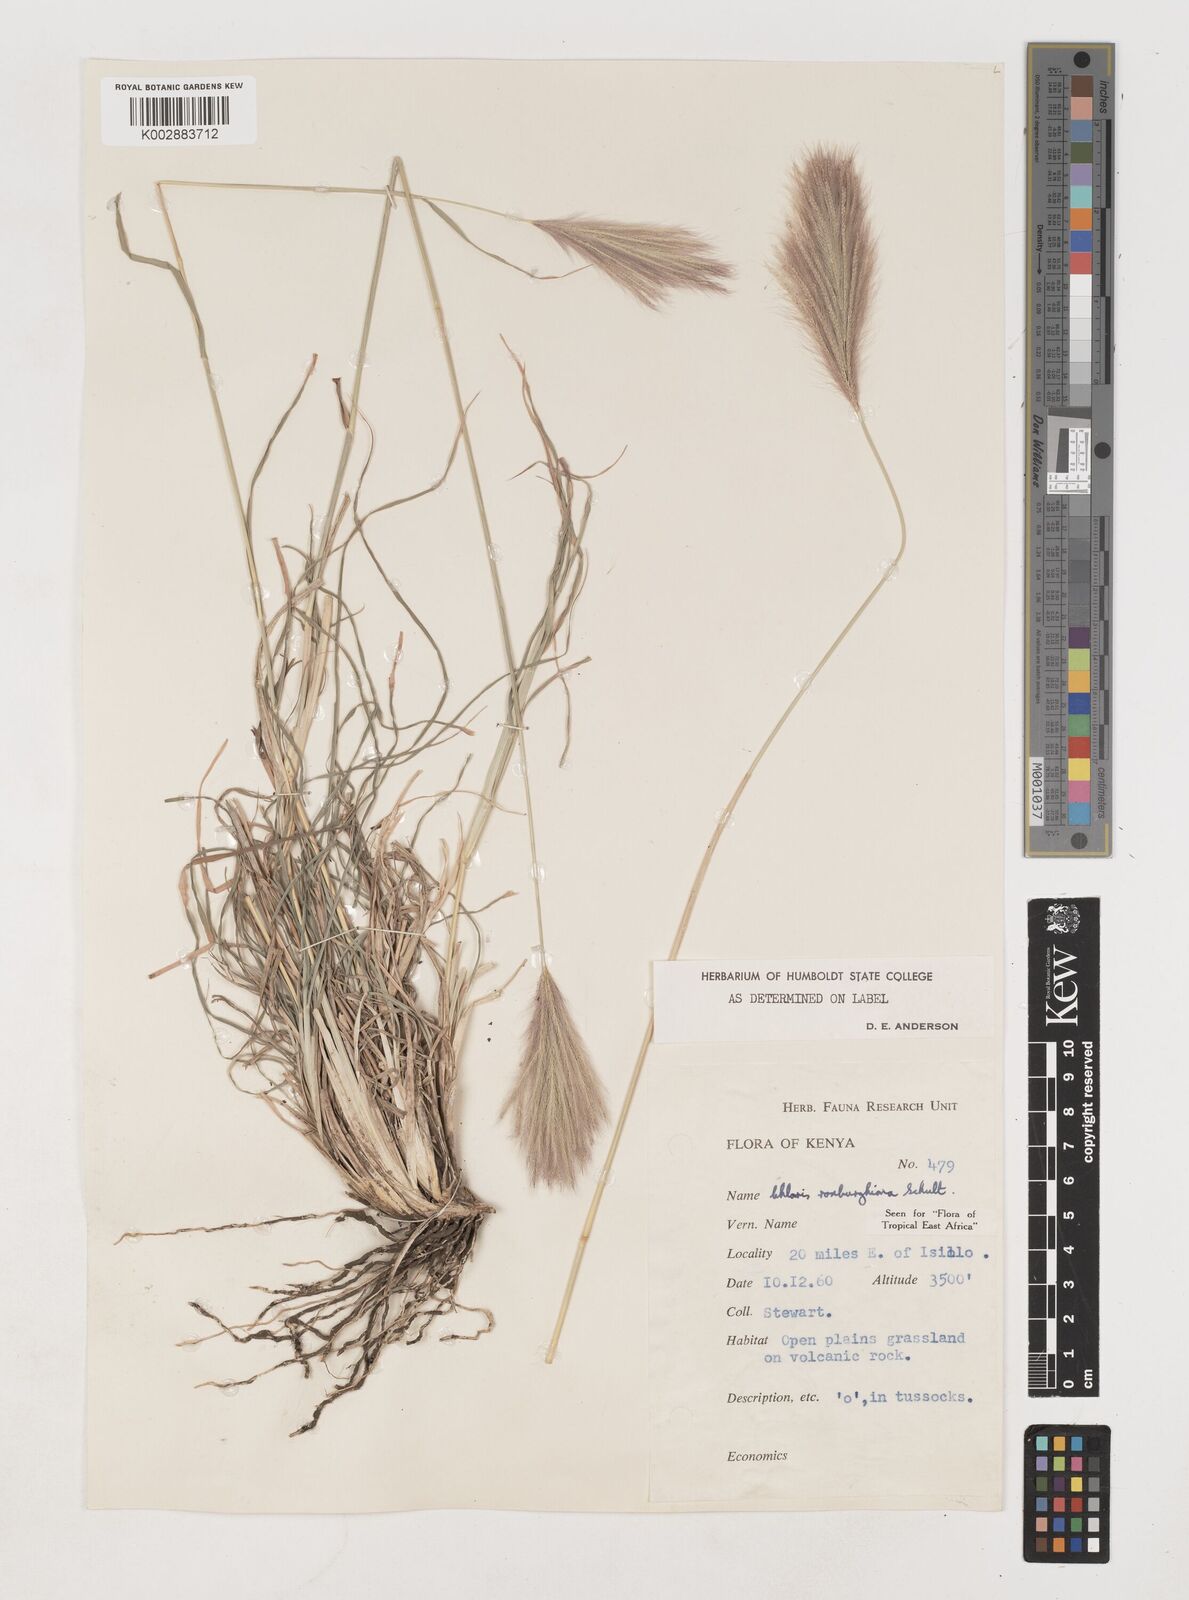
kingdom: Plantae
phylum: Tracheophyta
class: Liliopsida
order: Poales
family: Poaceae
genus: Tetrapogon
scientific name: Tetrapogon roxburghiana
